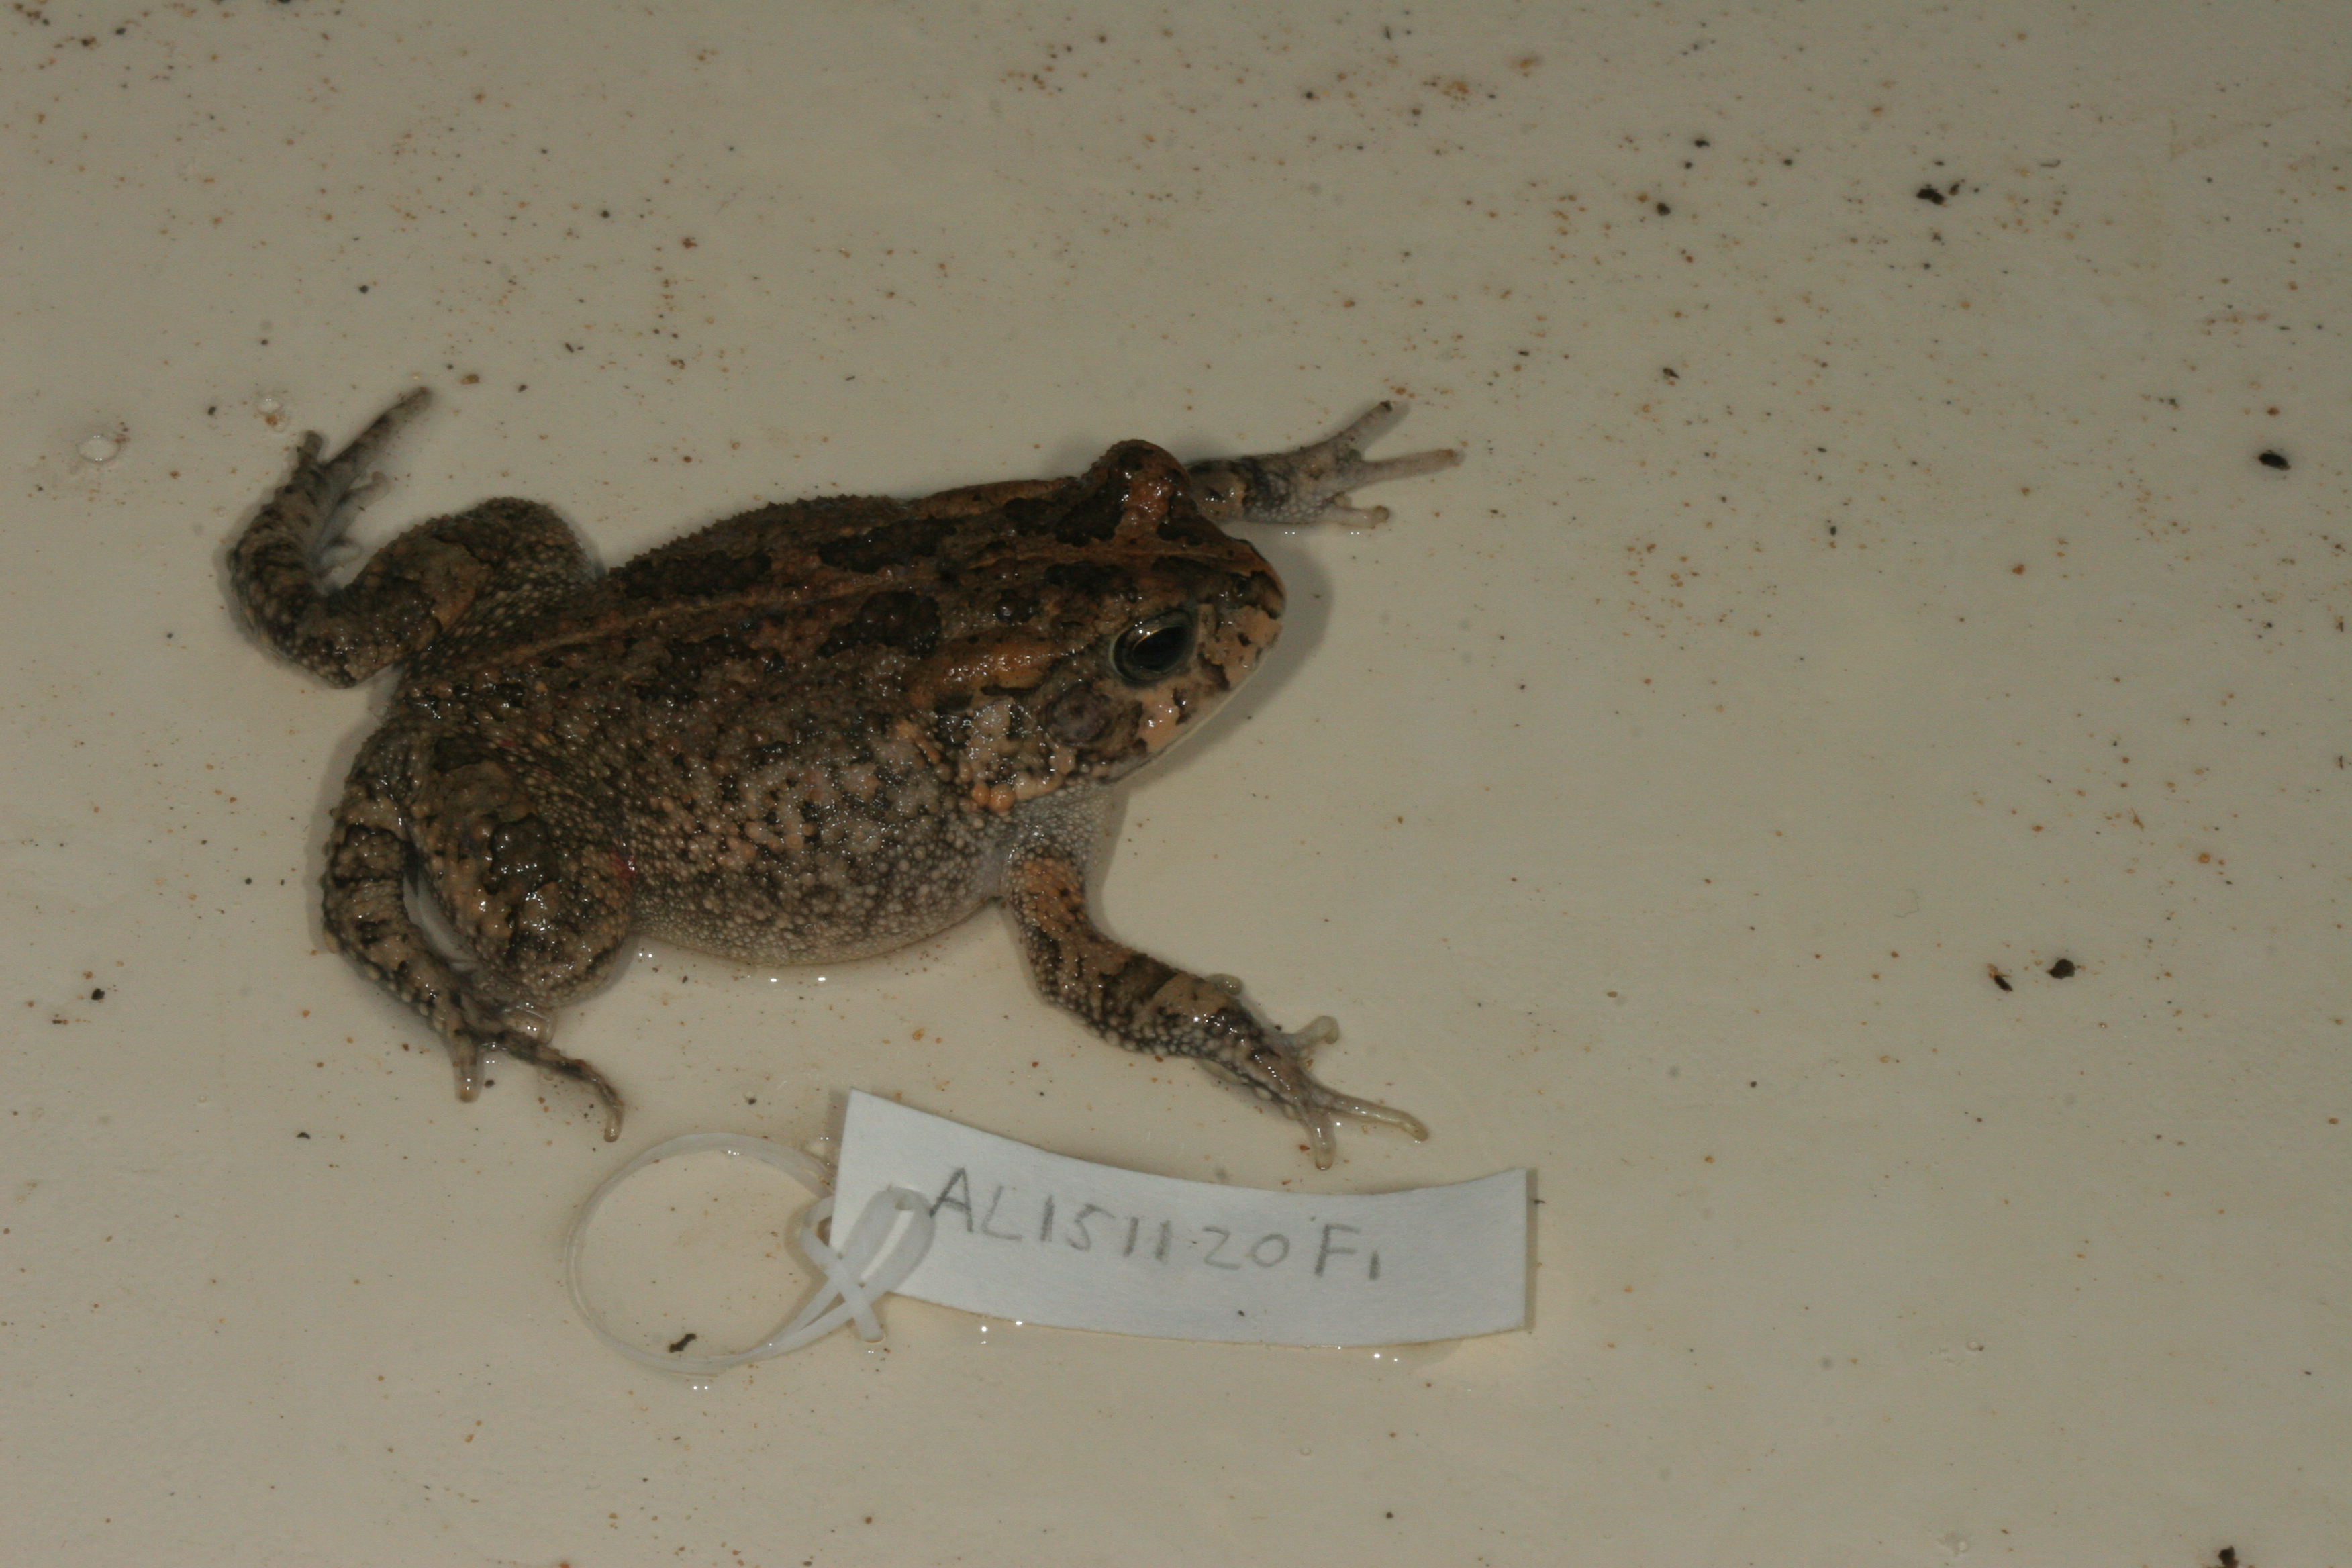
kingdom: Animalia
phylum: Chordata
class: Amphibia
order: Anura
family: Bufonidae
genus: Sclerophrys
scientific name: Sclerophrys gutturalis
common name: African common toad
